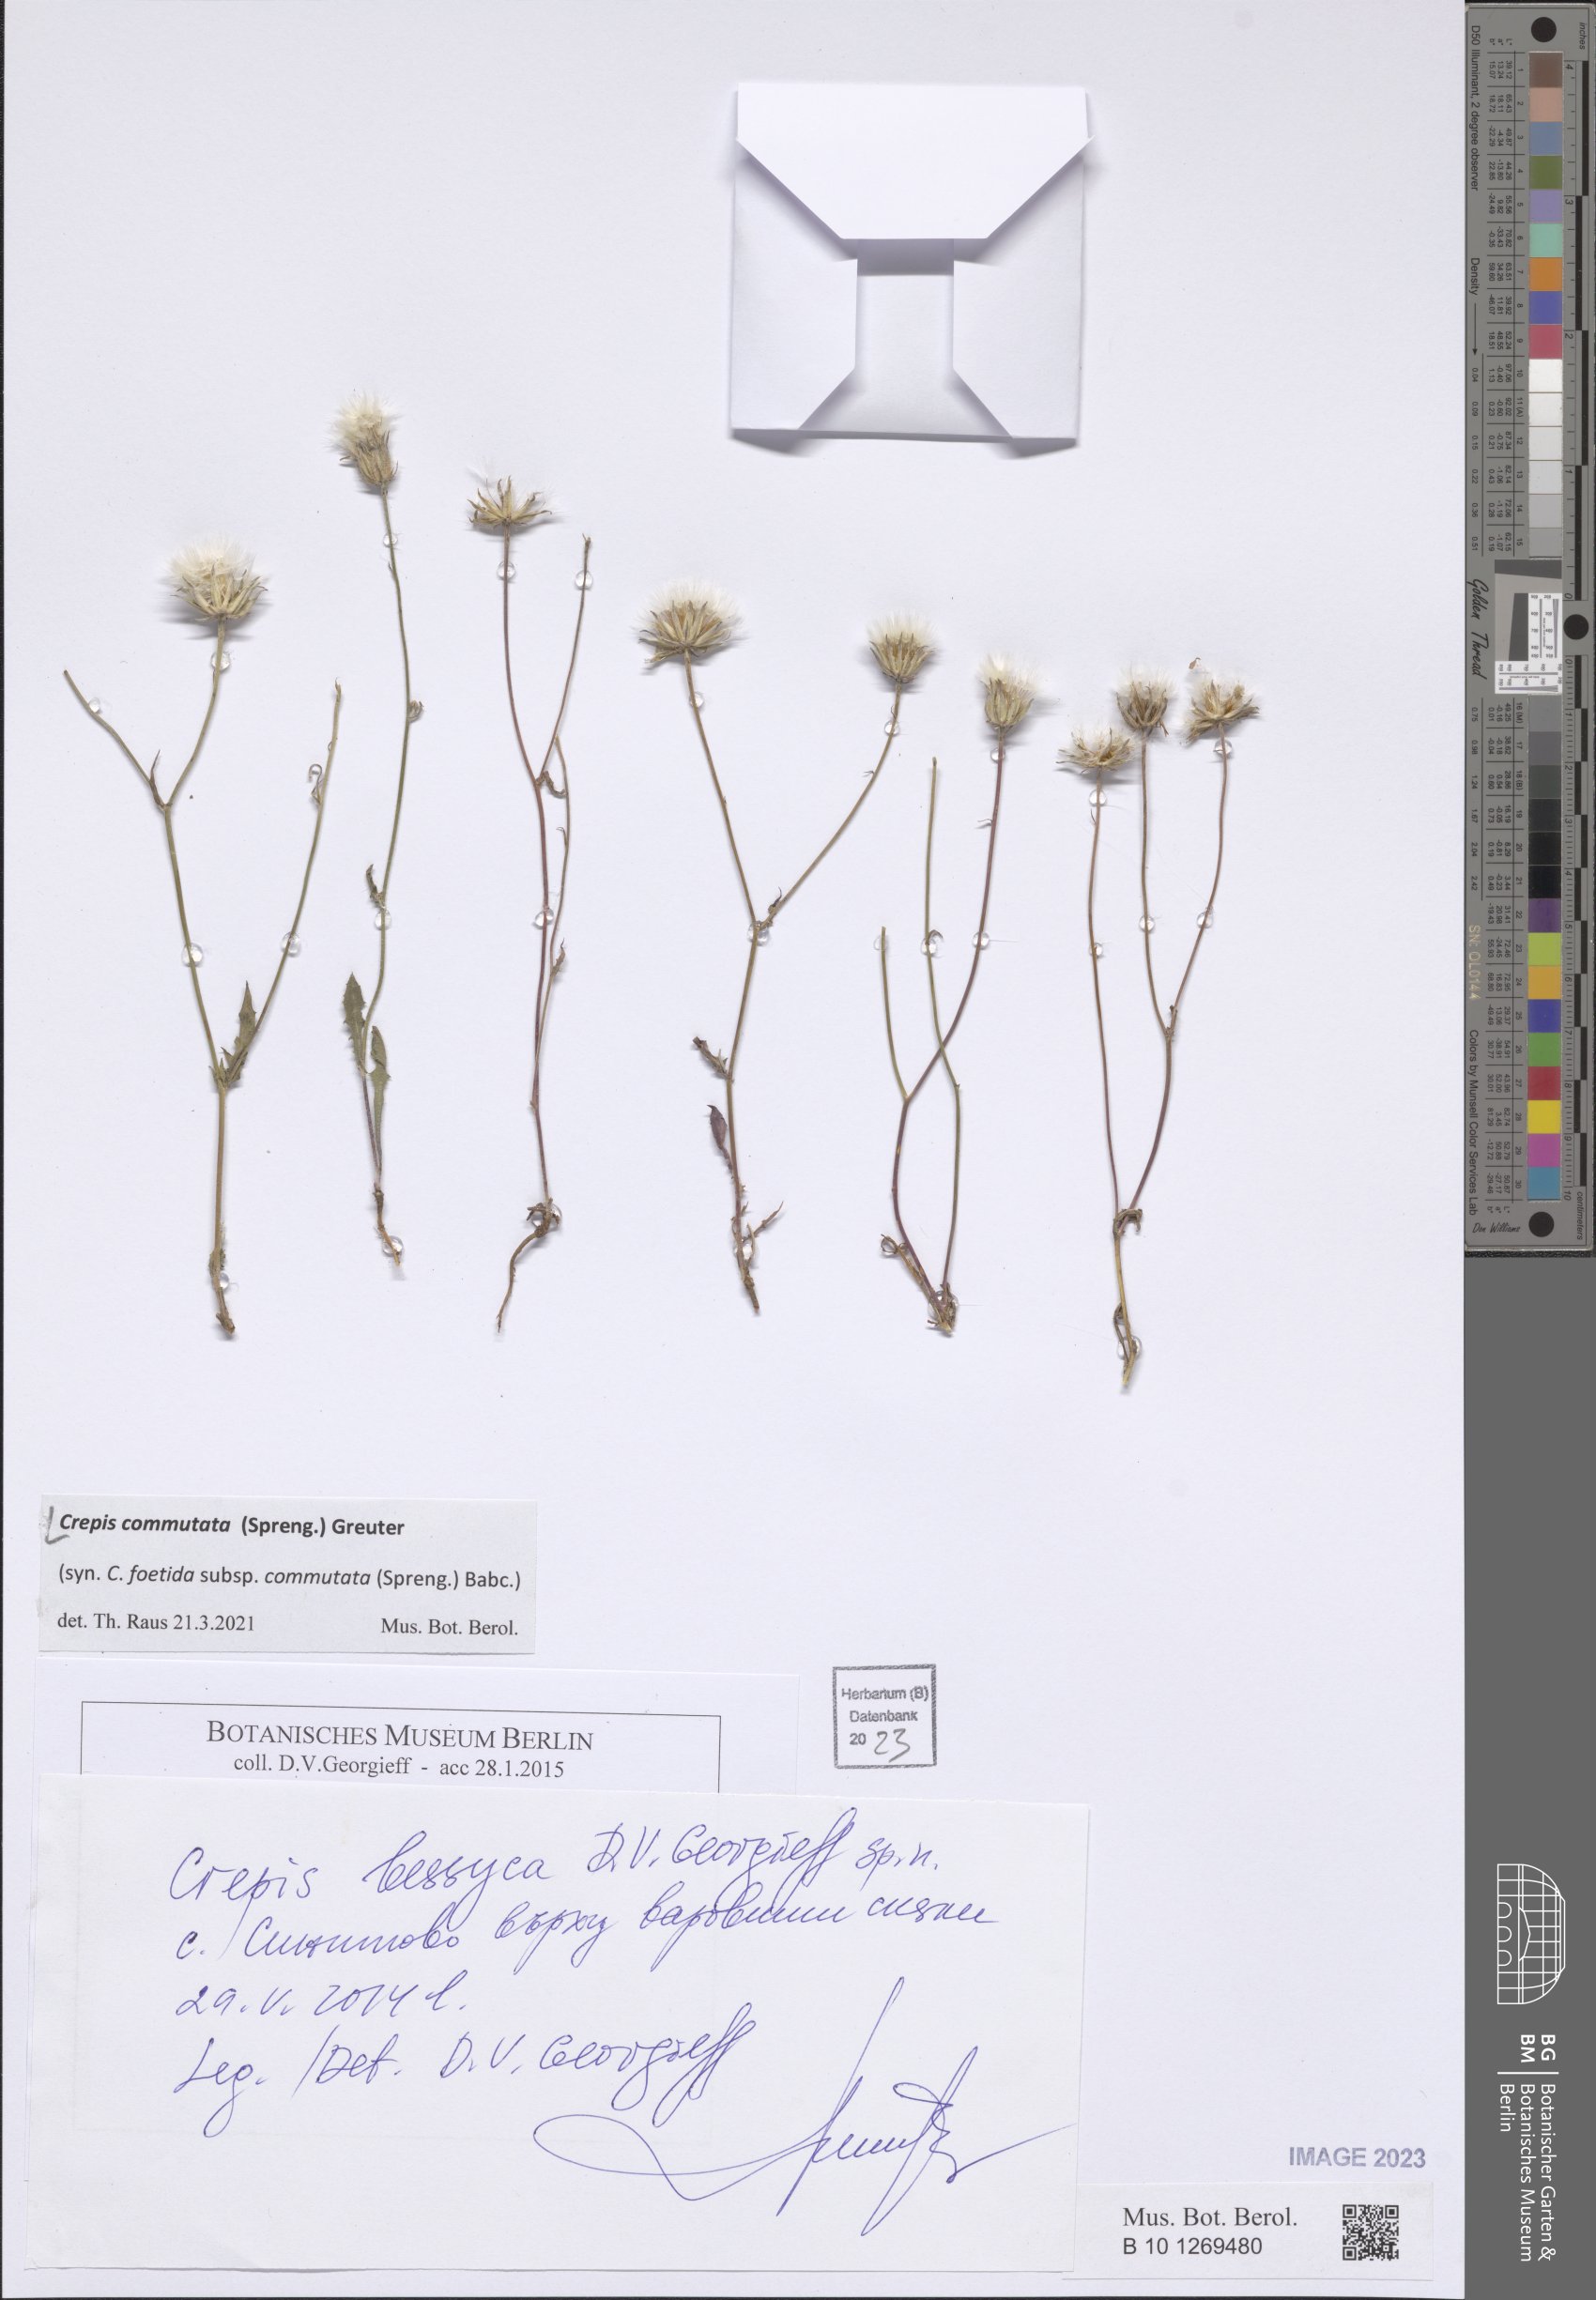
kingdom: Plantae
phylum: Tracheophyta
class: Magnoliopsida
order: Asterales
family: Asteraceae
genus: Crepis
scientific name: Crepis commutata
